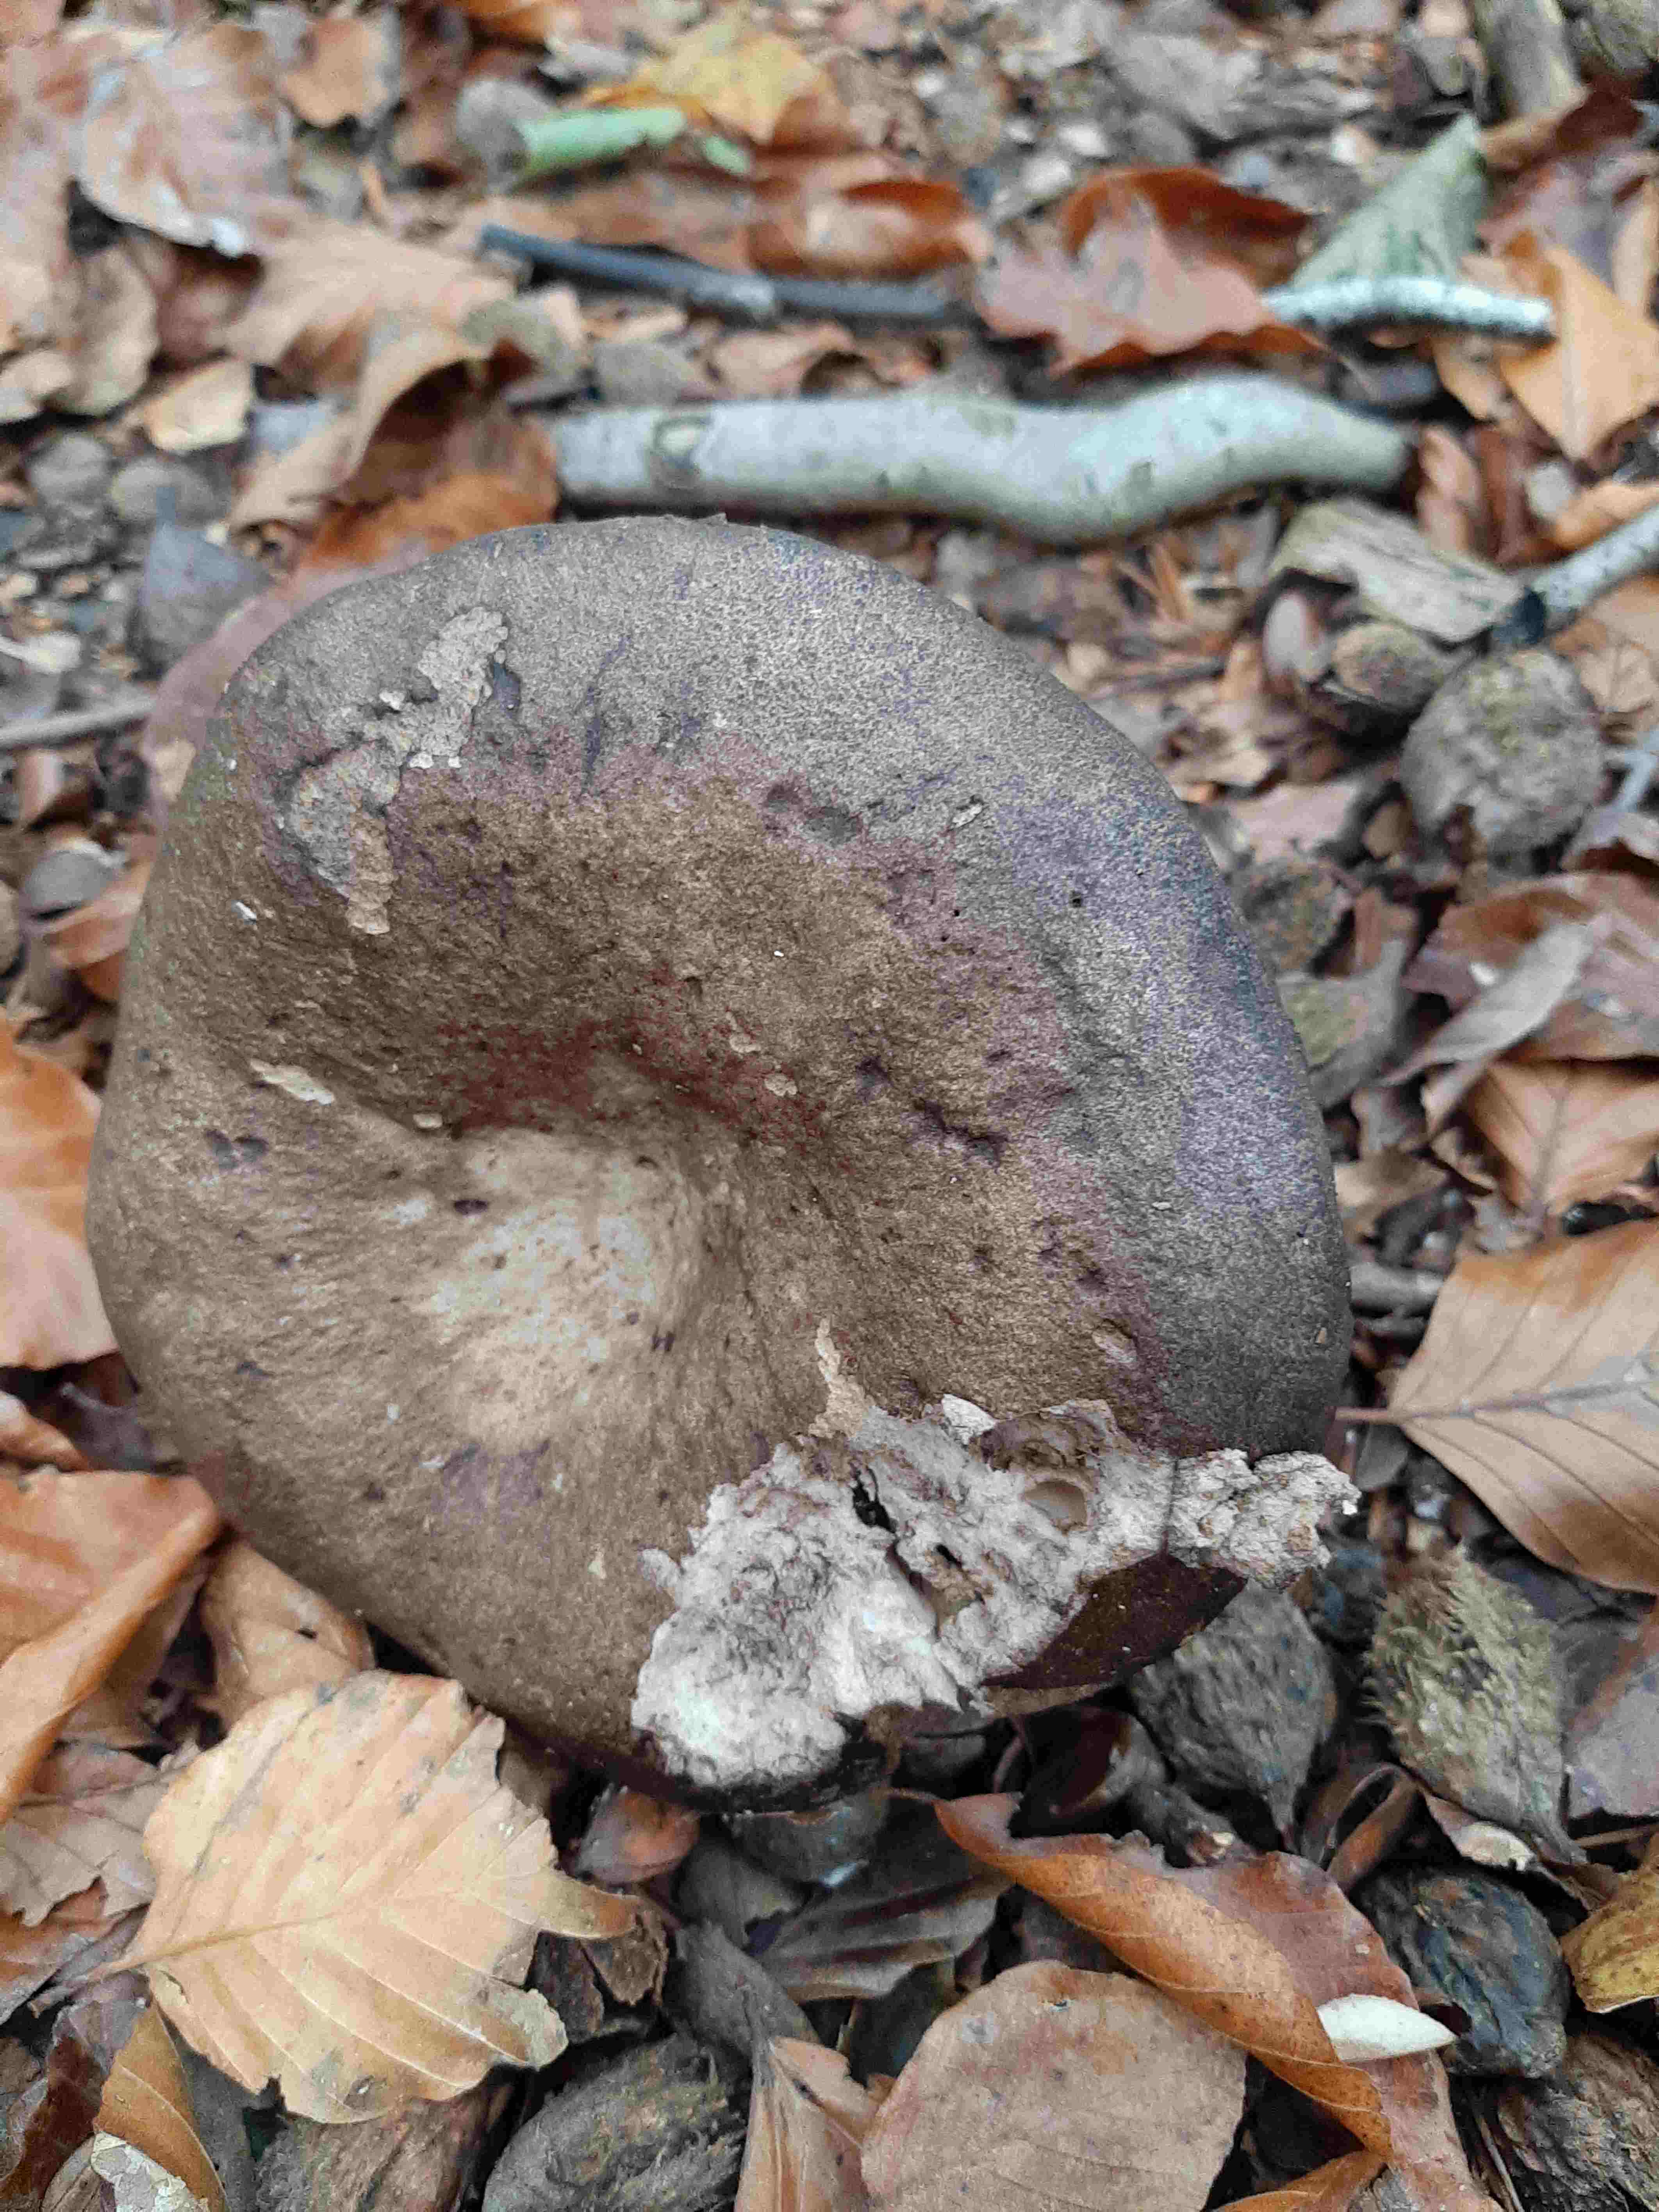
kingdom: Fungi
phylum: Basidiomycota
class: Agaricomycetes
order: Russulales
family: Russulaceae
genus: Russula
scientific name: Russula adusta
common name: sværtende skørhat
